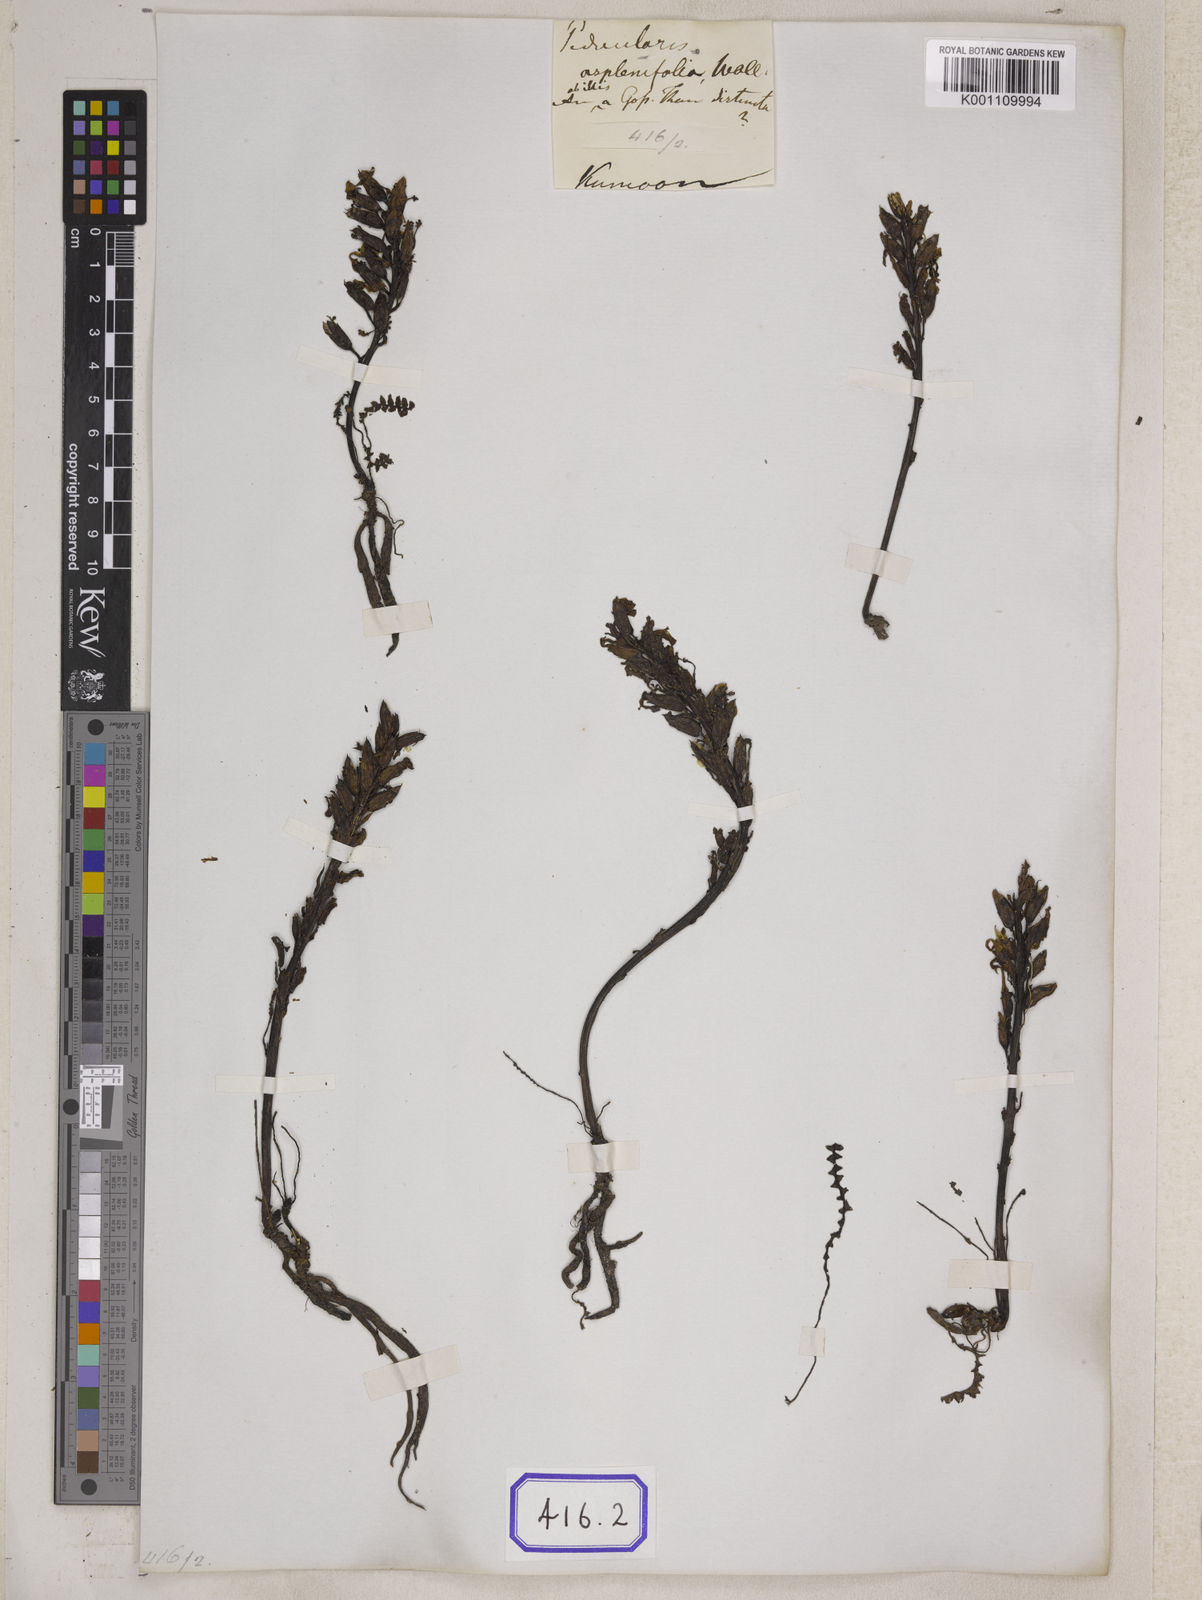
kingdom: Plantae
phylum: Tracheophyta
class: Magnoliopsida
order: Lamiales
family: Orobanchaceae
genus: Pedicularis
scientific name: Pedicularis
